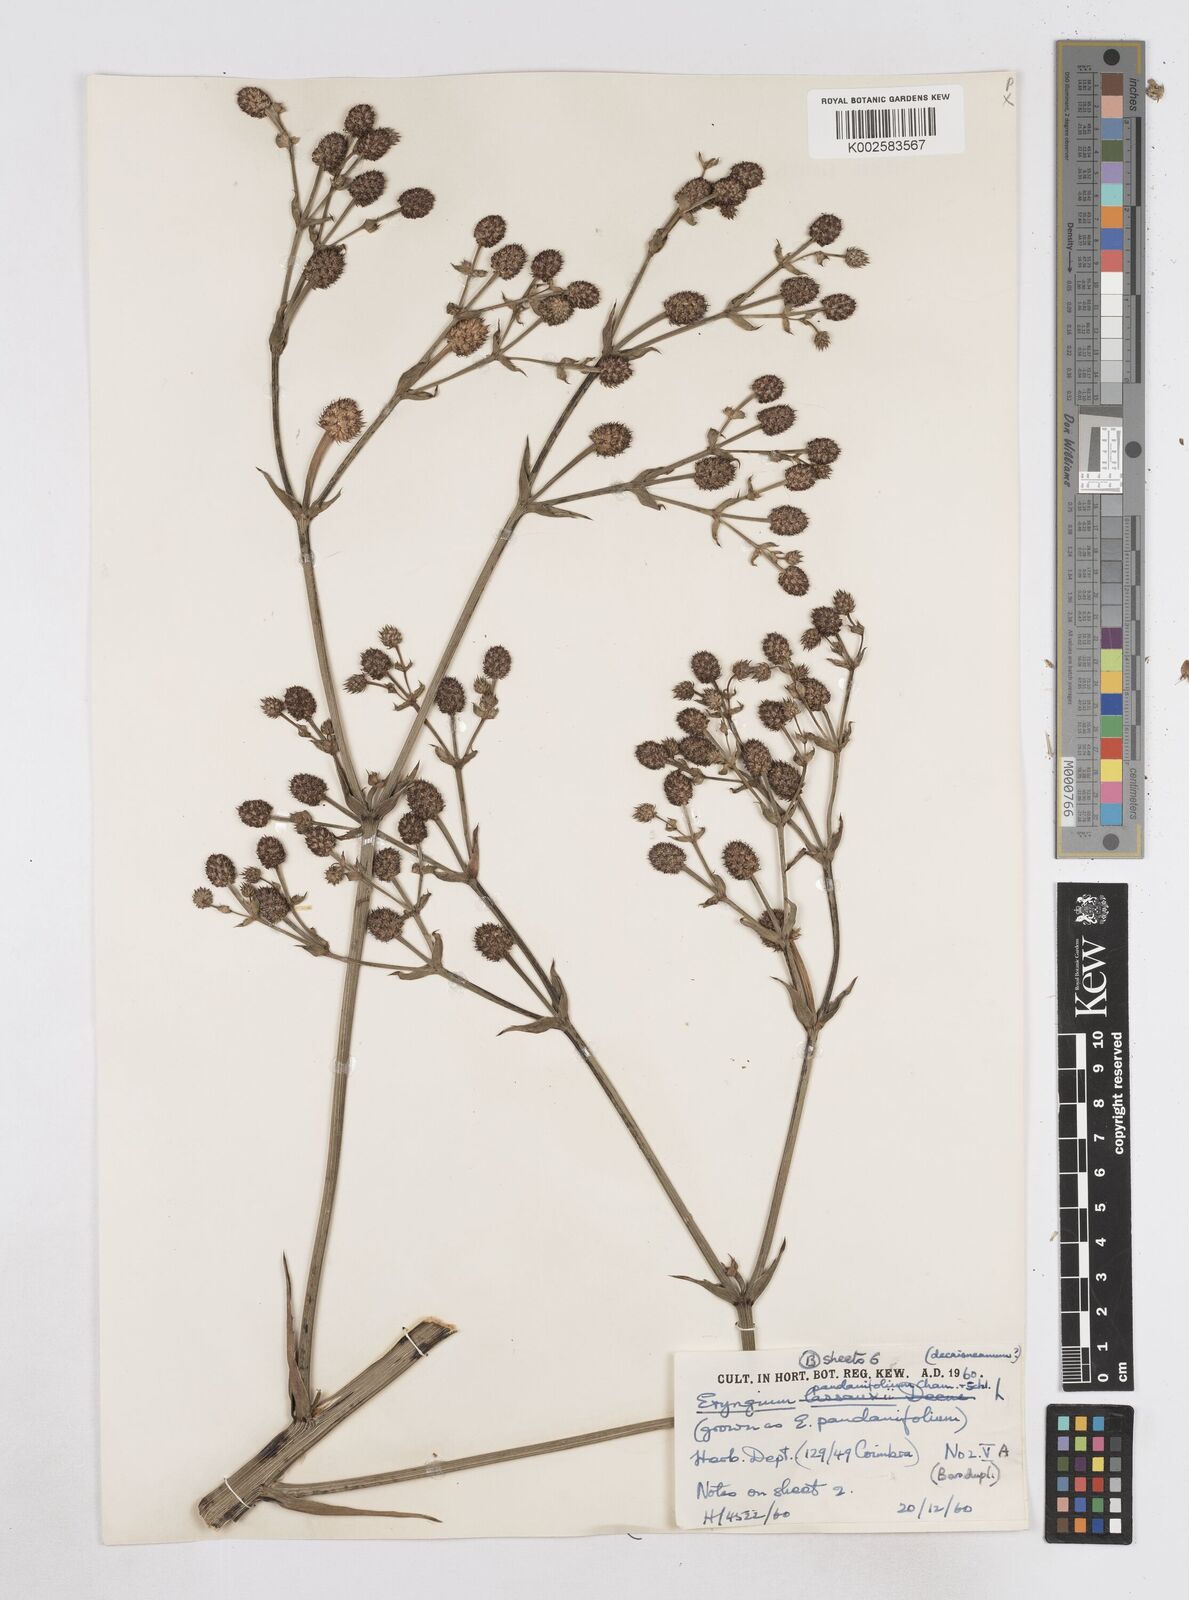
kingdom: Plantae
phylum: Tracheophyta
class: Magnoliopsida
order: Apiales
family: Apiaceae
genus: Eryngium
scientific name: Eryngium pandanifolium
